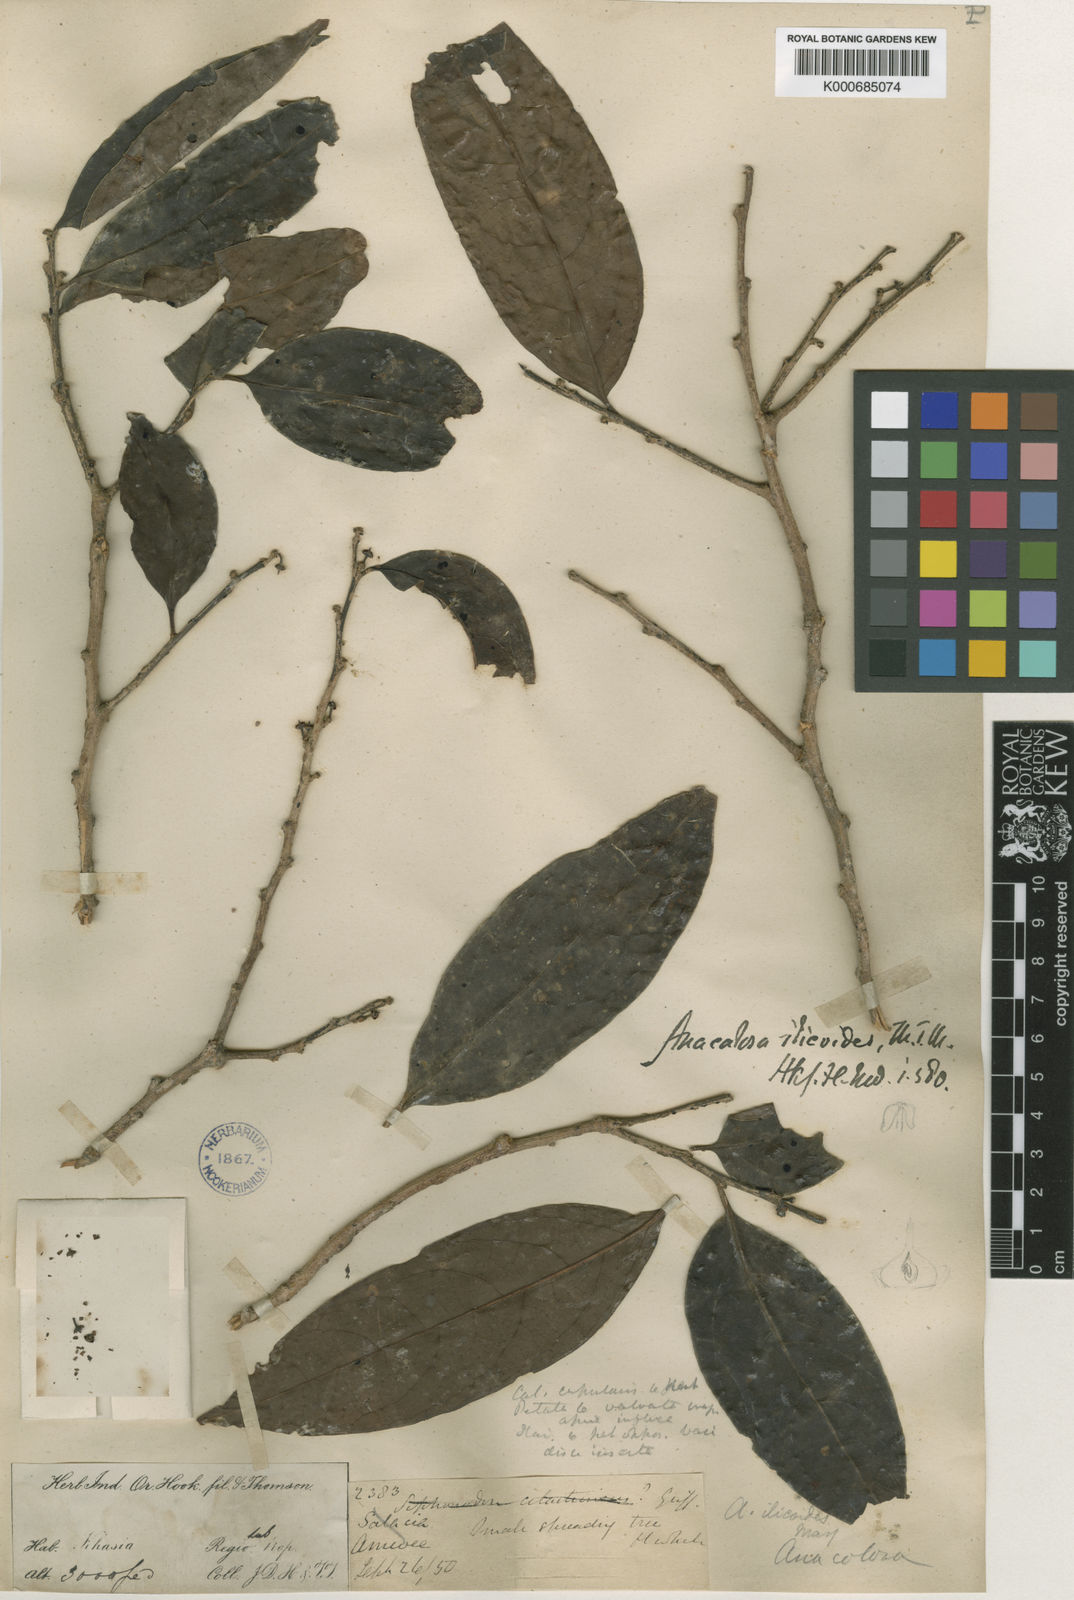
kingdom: Plantae
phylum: Tracheophyta
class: Magnoliopsida
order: Santalales
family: Aptandraceae
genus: Anacolosa
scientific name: Anacolosa ilicoides
